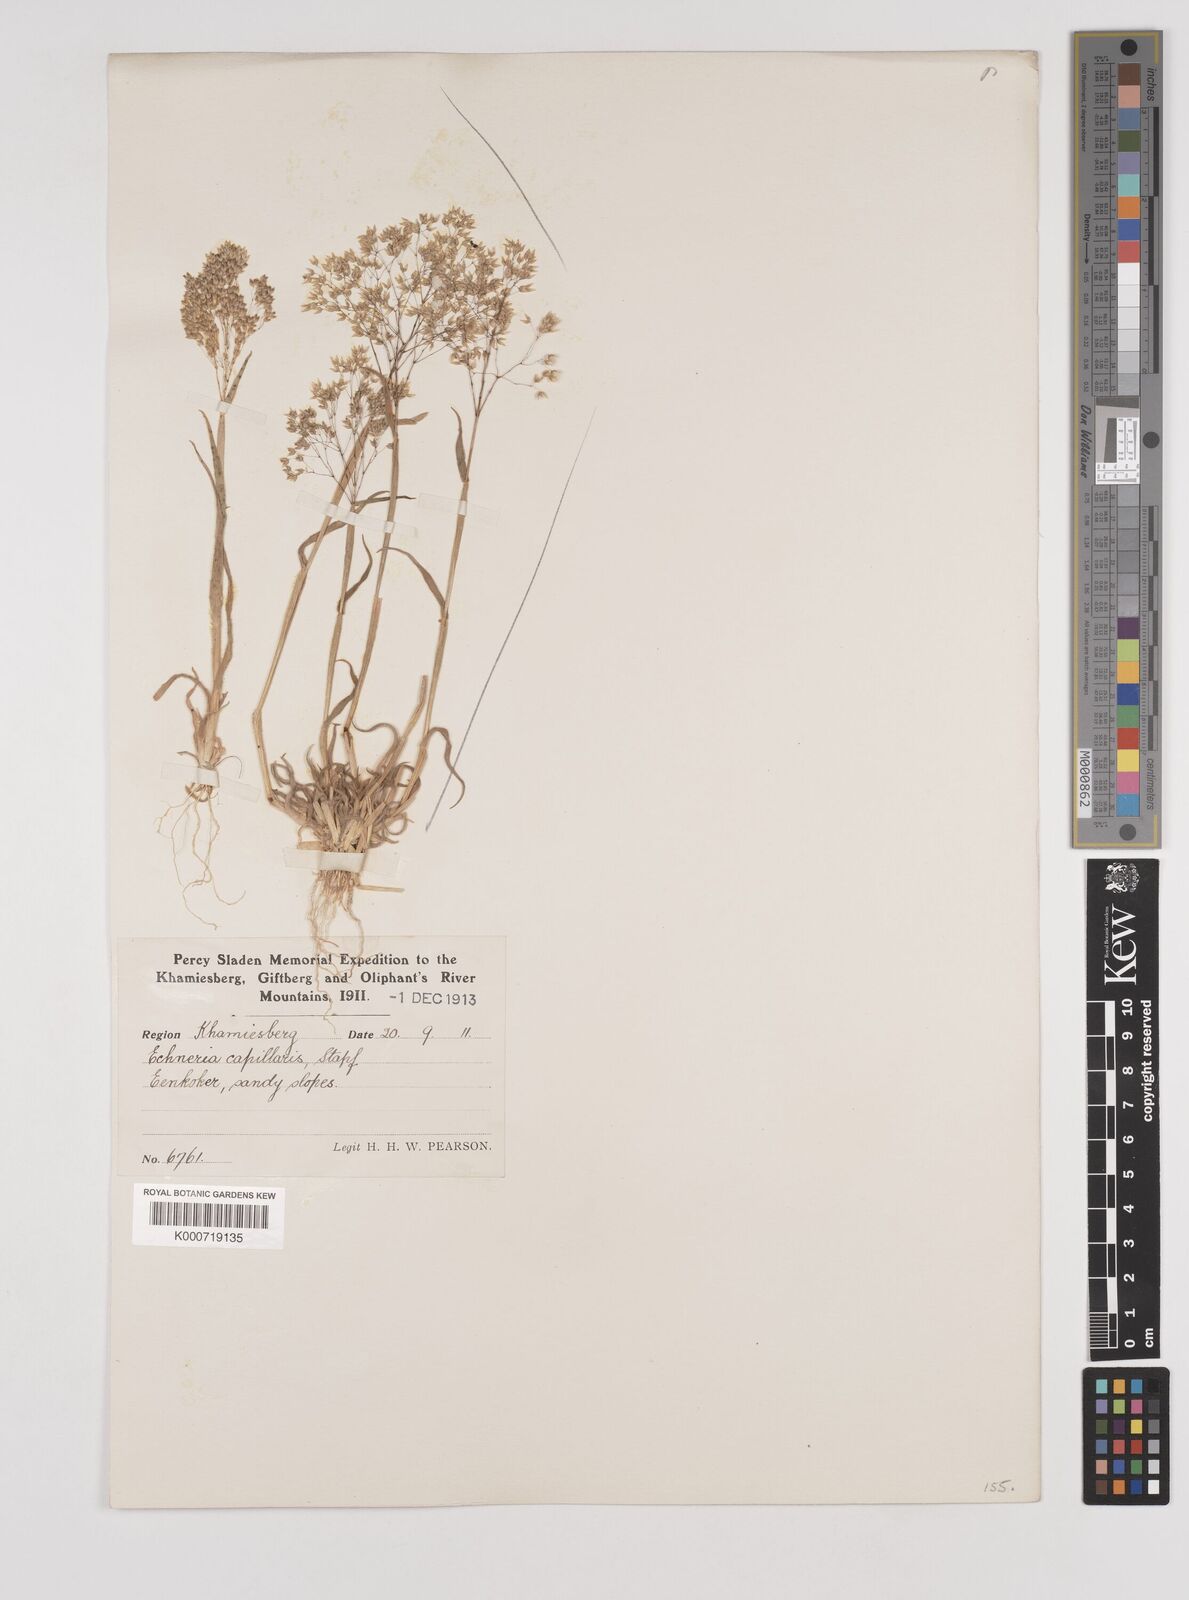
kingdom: Plantae
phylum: Tracheophyta
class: Liliopsida
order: Poales
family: Poaceae
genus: Pentameris
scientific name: Pentameris capillaris
